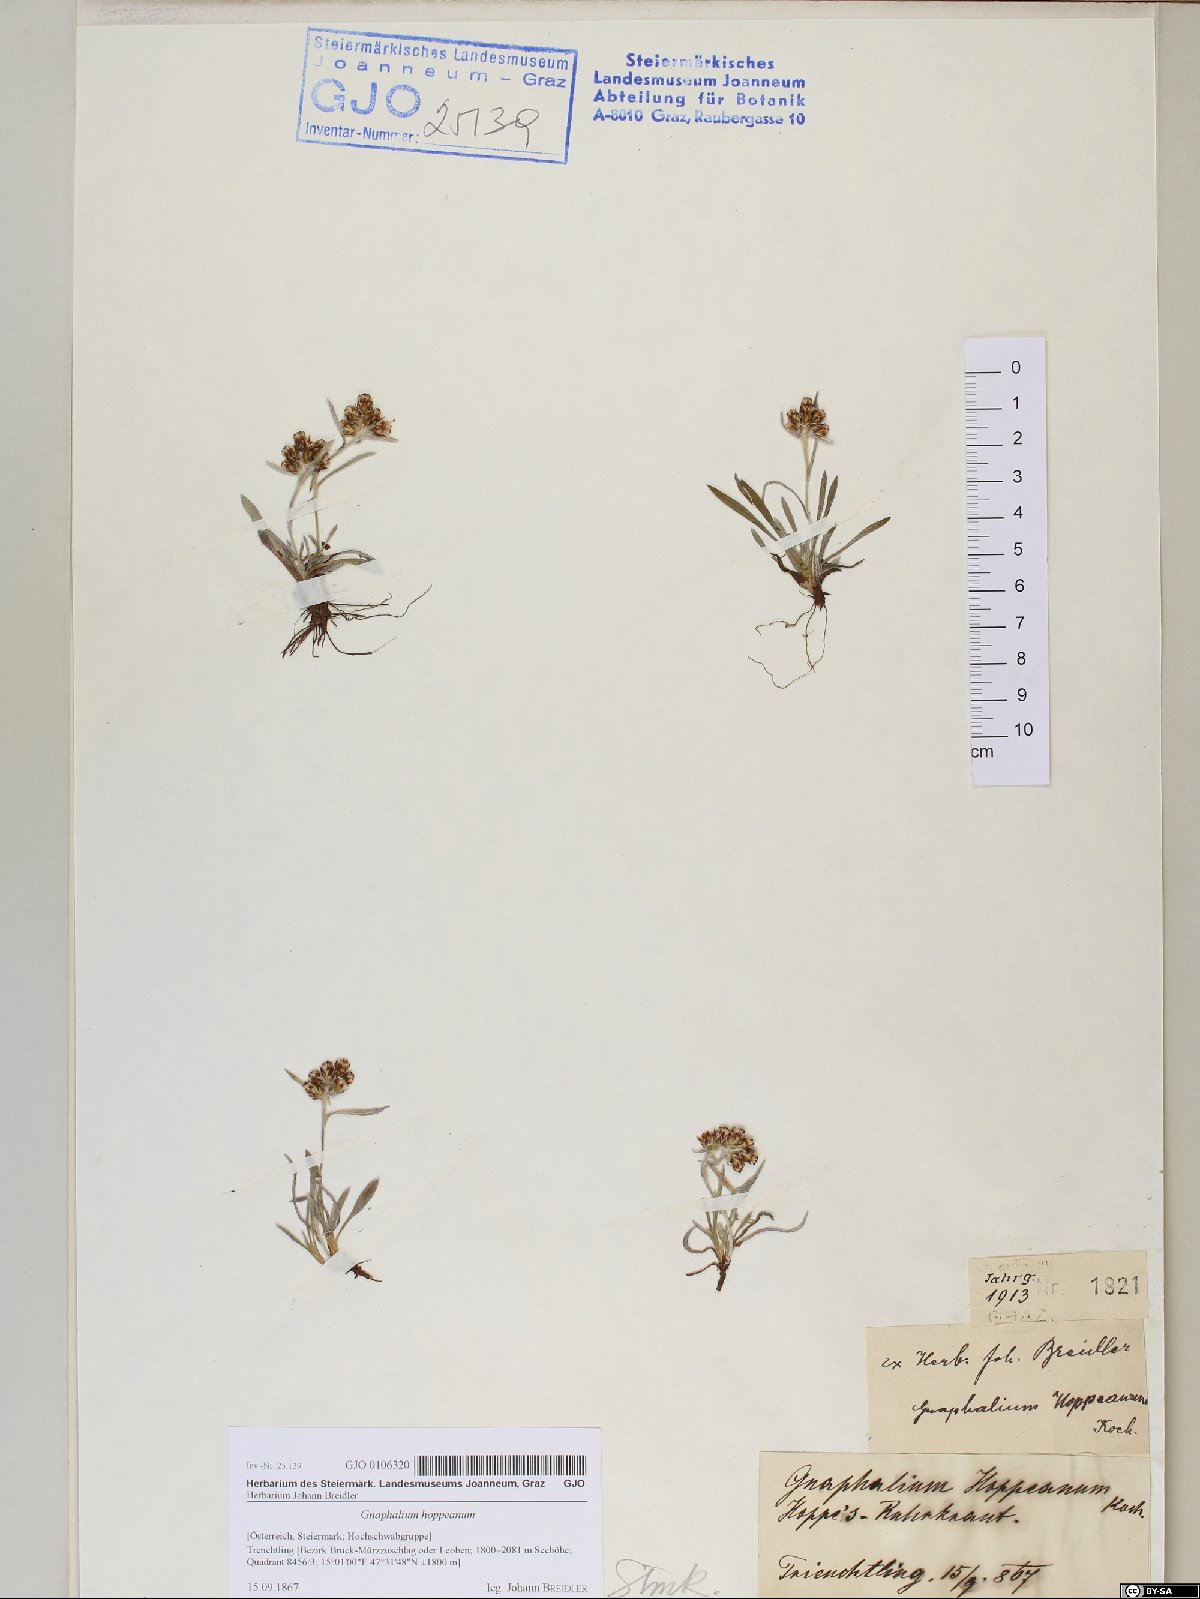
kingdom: Plantae
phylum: Tracheophyta
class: Magnoliopsida
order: Asterales
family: Asteraceae
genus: Omalotheca
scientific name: Omalotheca hoppeana
